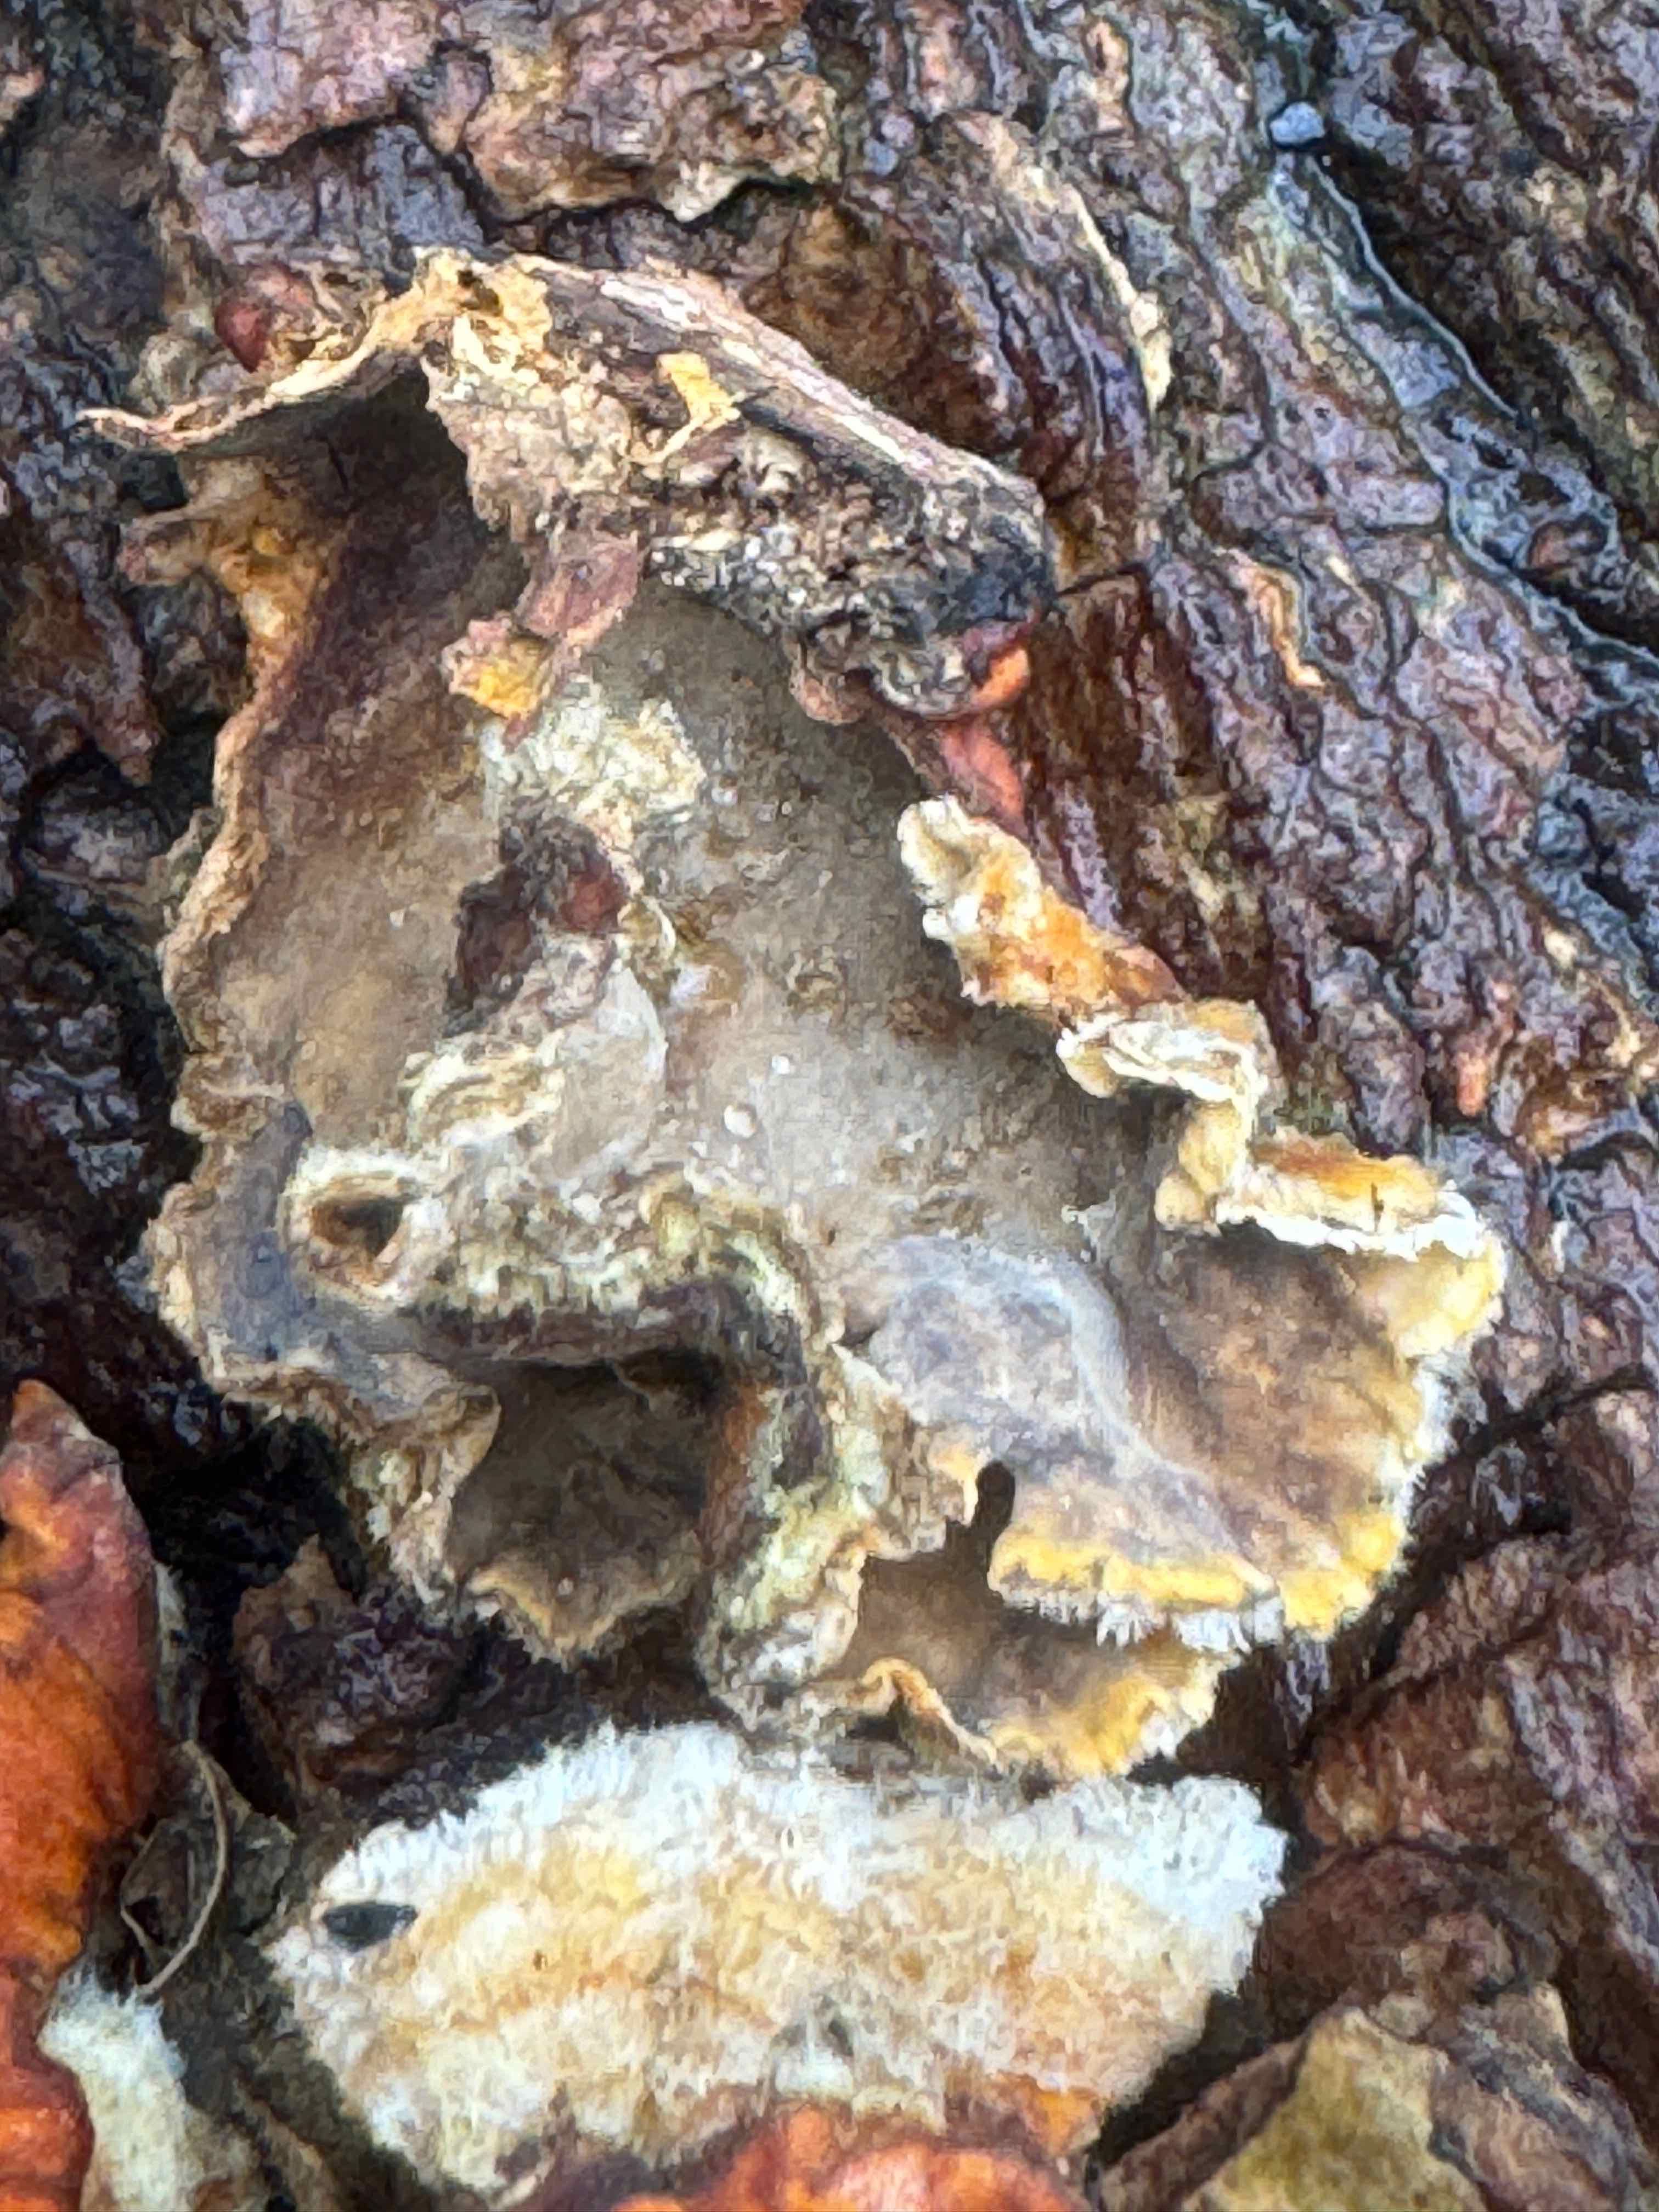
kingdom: Fungi
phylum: Basidiomycota
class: Agaricomycetes
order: Russulales
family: Stereaceae
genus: Stereum
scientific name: Stereum subtomentosum
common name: smuk lædersvamp
